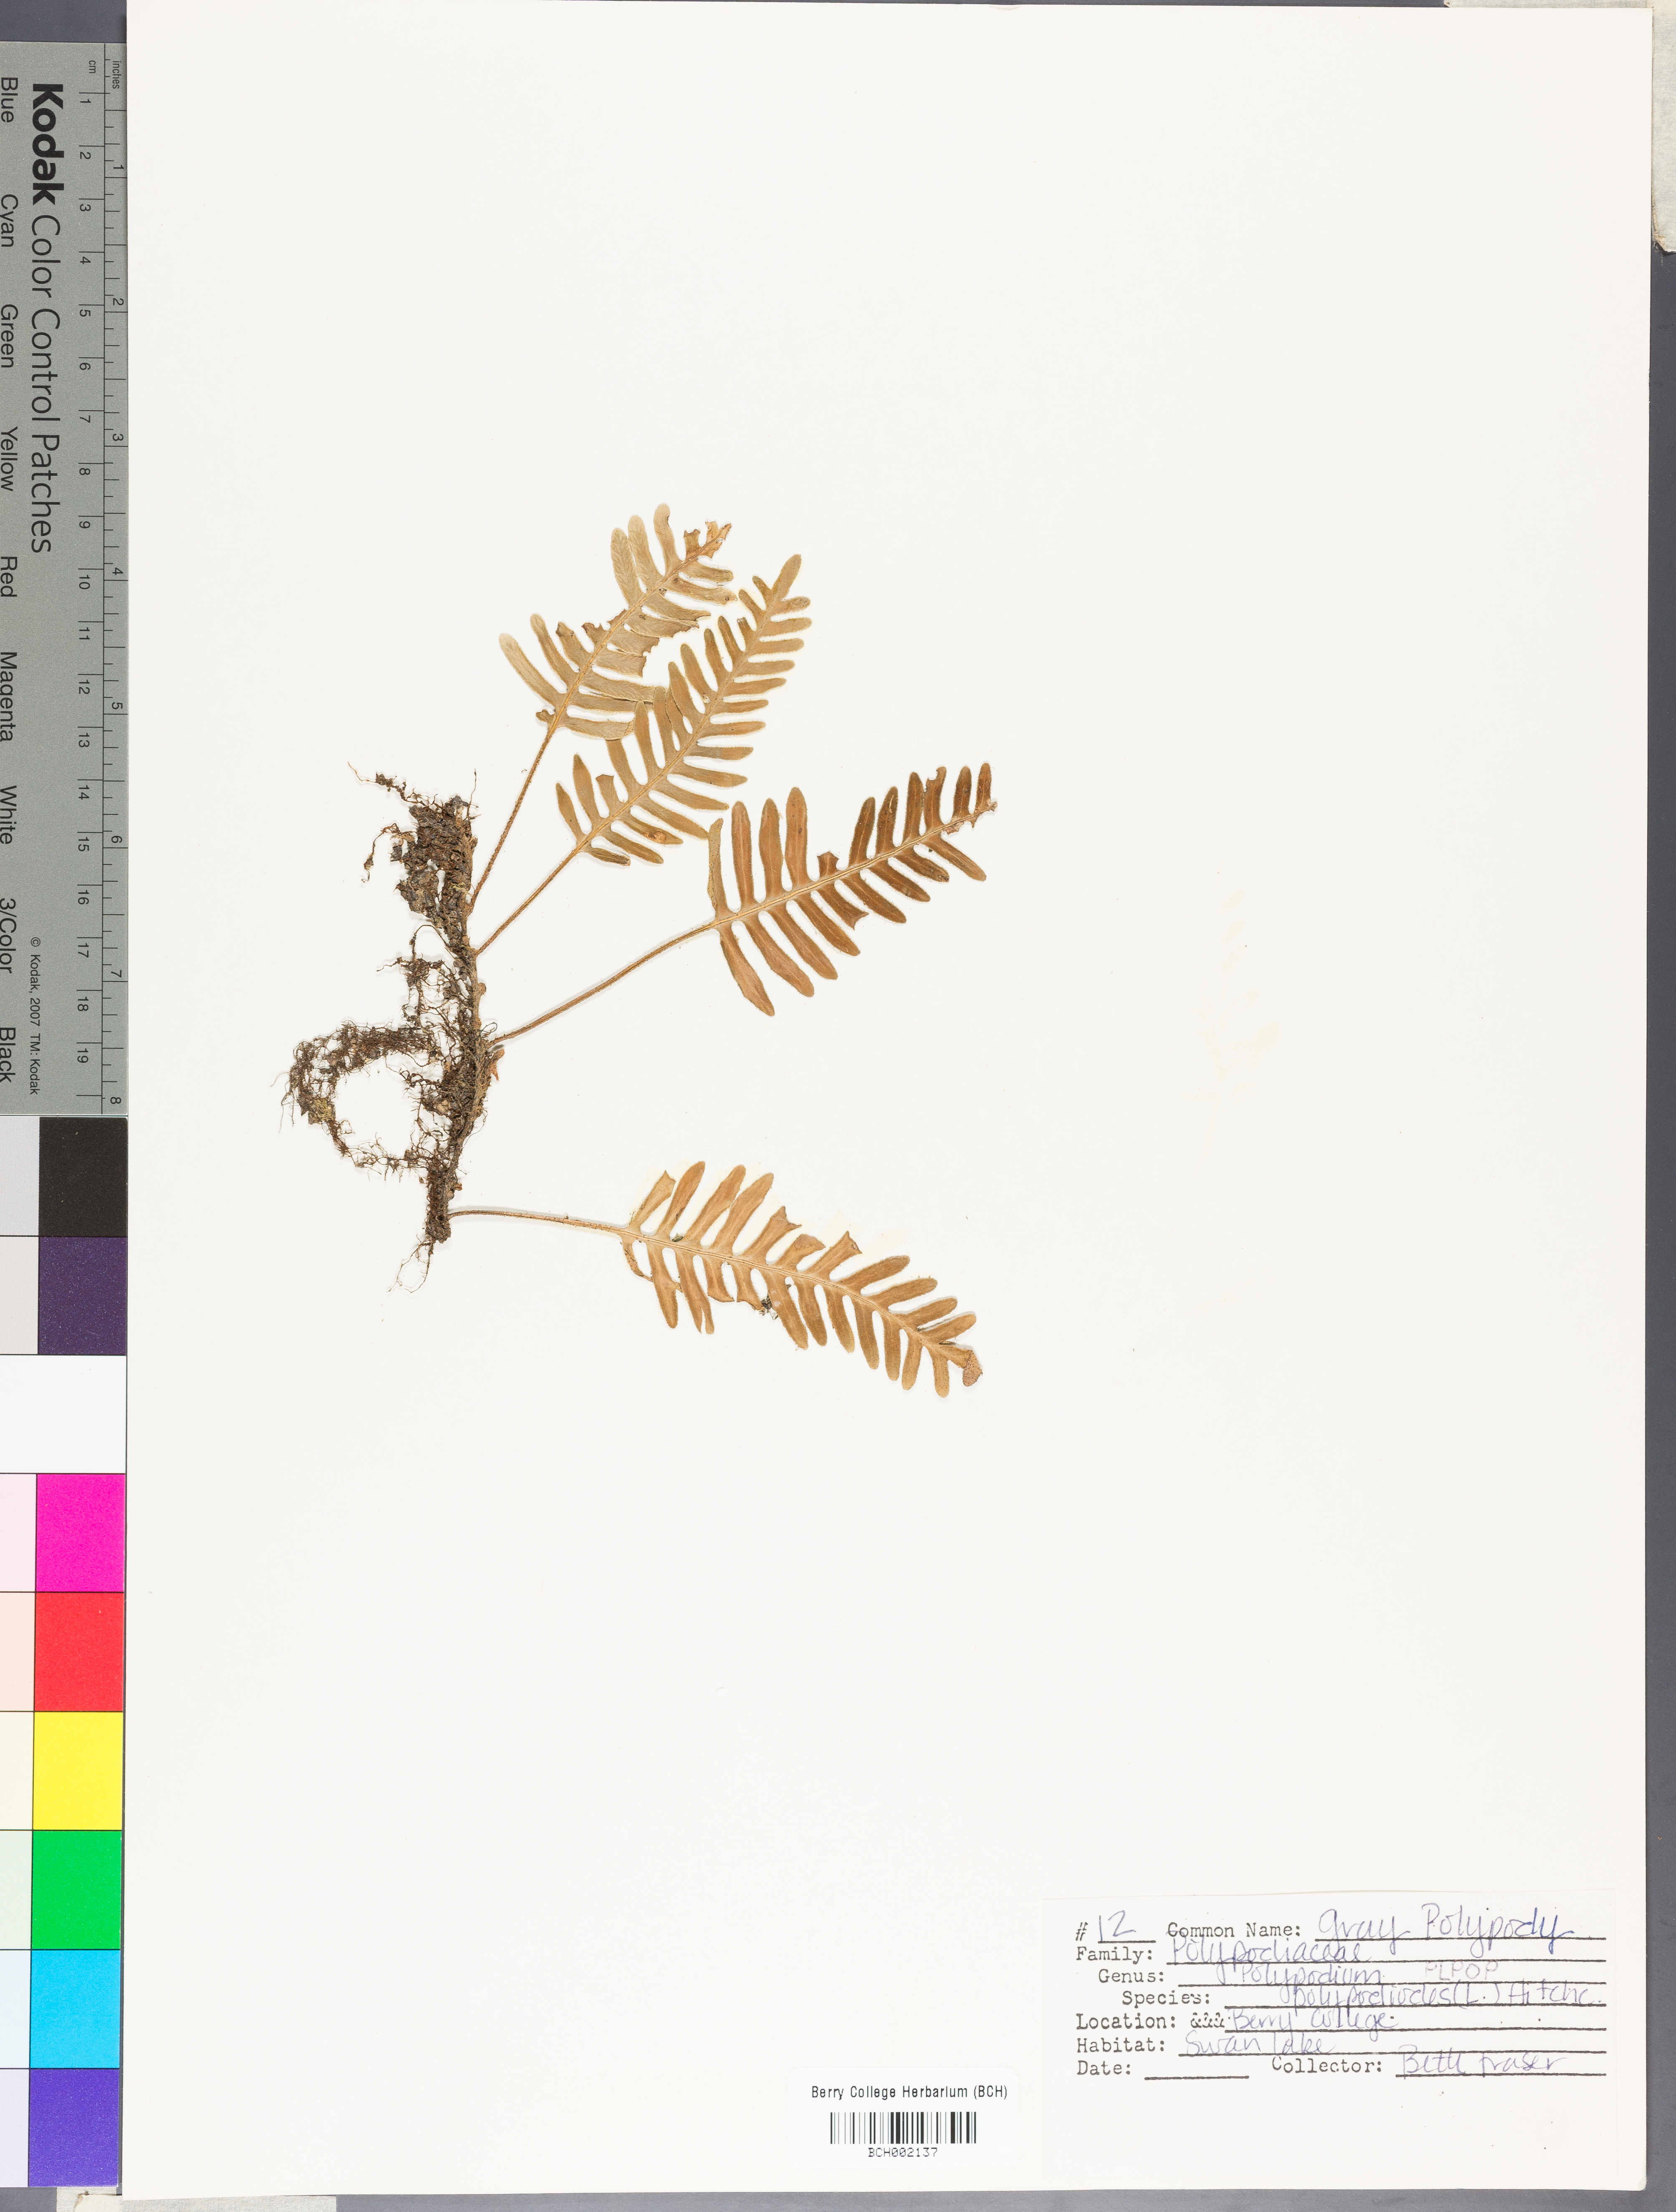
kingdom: Plantae
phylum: Tracheophyta
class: Polypodiopsida
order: Polypodiales
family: Polypodiaceae
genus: Pleopeltis
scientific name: Pleopeltis polypodioides
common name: Resurrection fern
